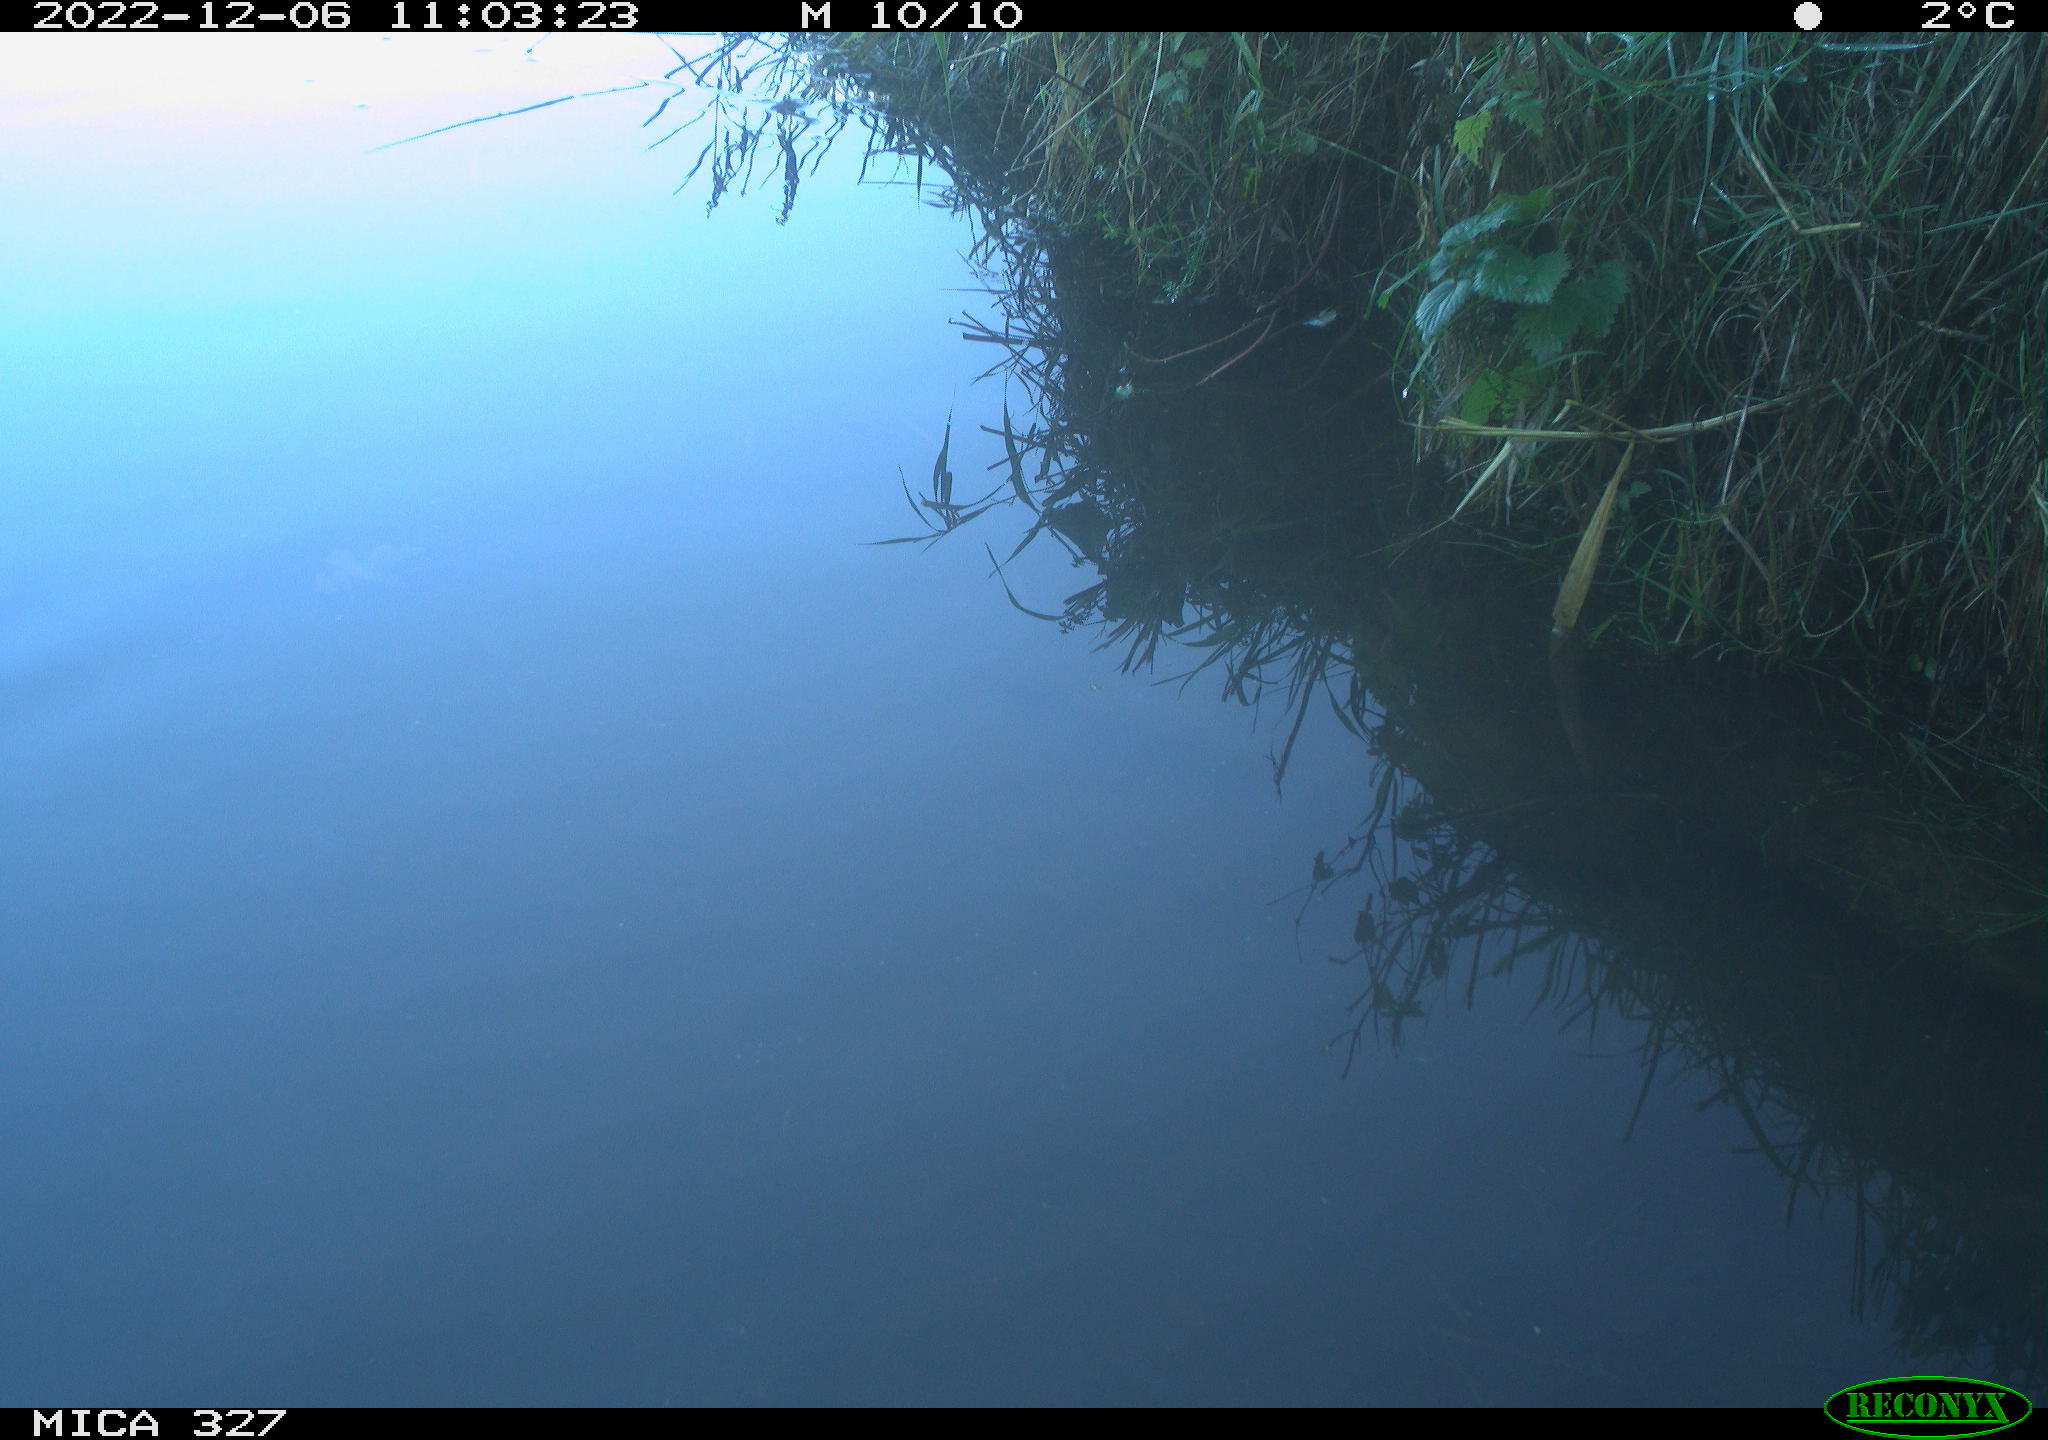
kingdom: Animalia
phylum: Chordata
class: Aves
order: Gruiformes
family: Rallidae
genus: Gallinula
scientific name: Gallinula chloropus
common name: Common moorhen
